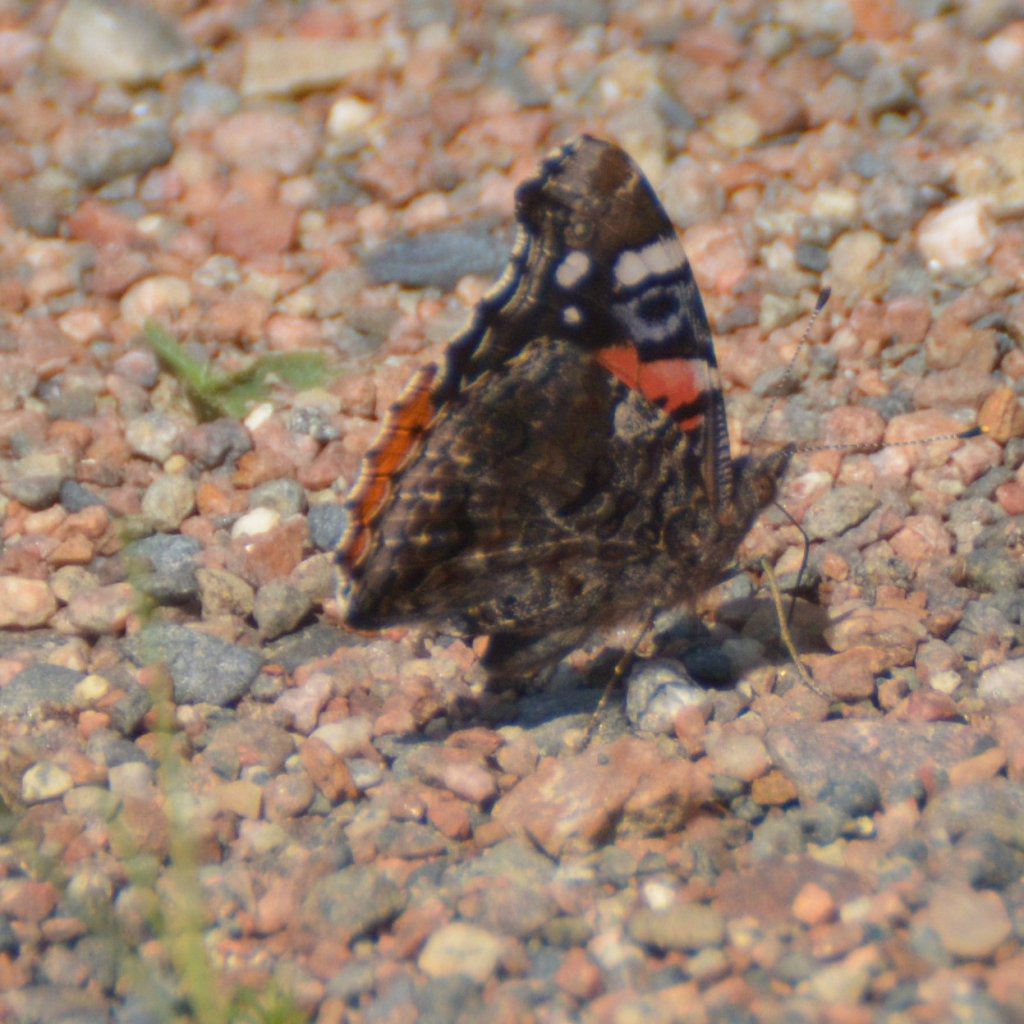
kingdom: Animalia
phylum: Arthropoda
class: Insecta
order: Lepidoptera
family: Nymphalidae
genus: Vanessa
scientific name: Vanessa atalanta
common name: Red Admiral
